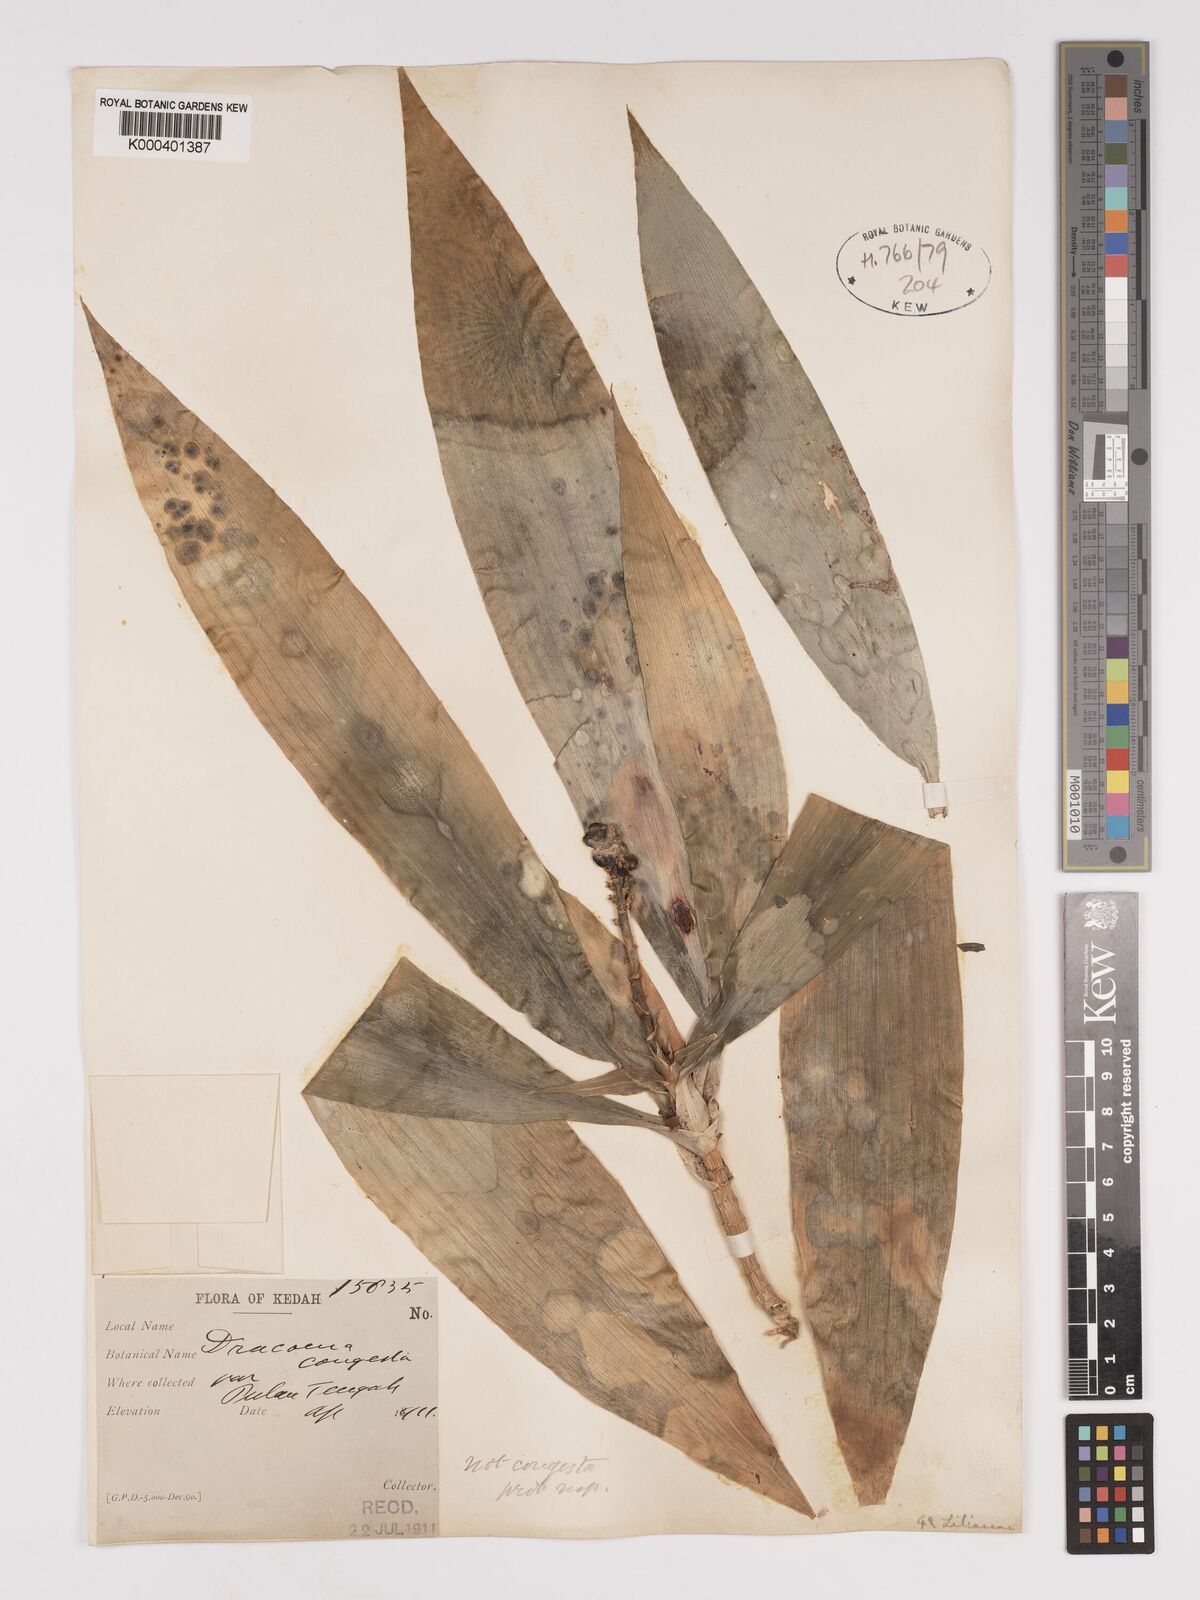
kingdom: Plantae
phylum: Tracheophyta
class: Liliopsida
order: Asparagales
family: Asparagaceae
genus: Dracaena
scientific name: Dracaena
